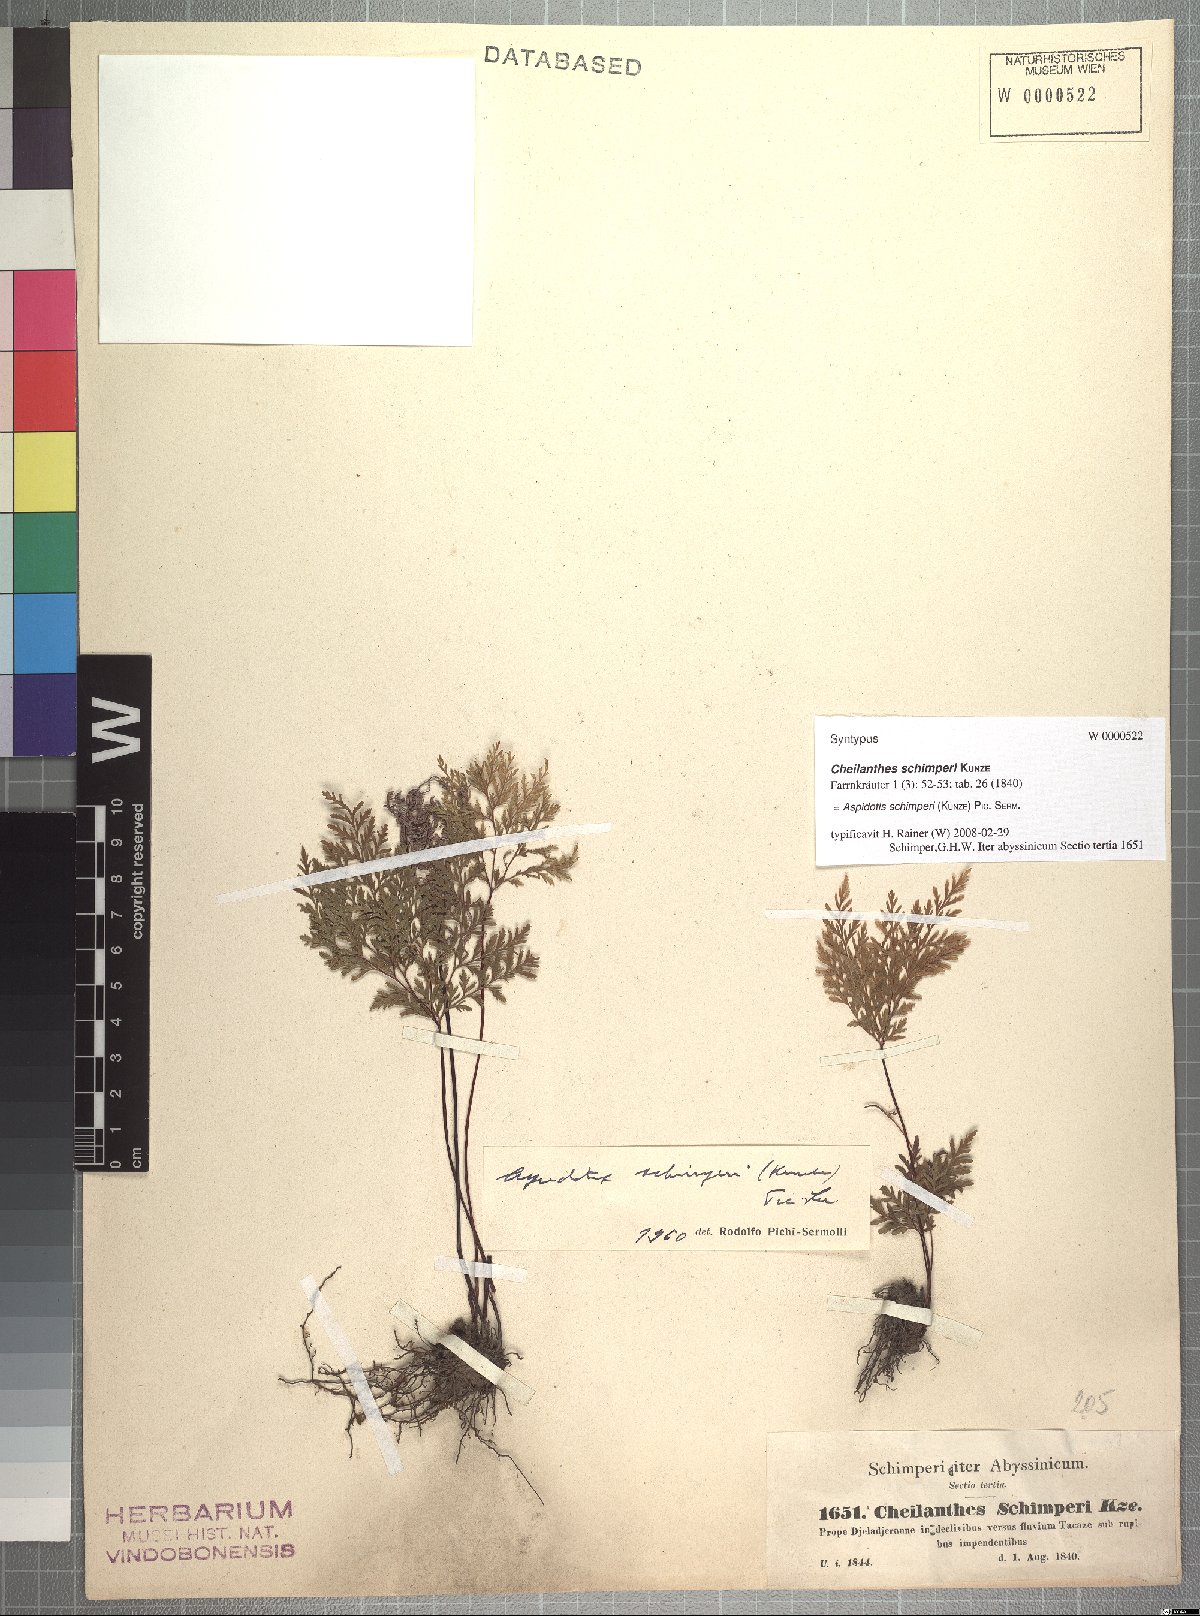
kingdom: Plantae
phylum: Tracheophyta
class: Polypodiopsida
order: Polypodiales
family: Pteridaceae
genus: Cheilanthes
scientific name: Cheilanthes schimperi
